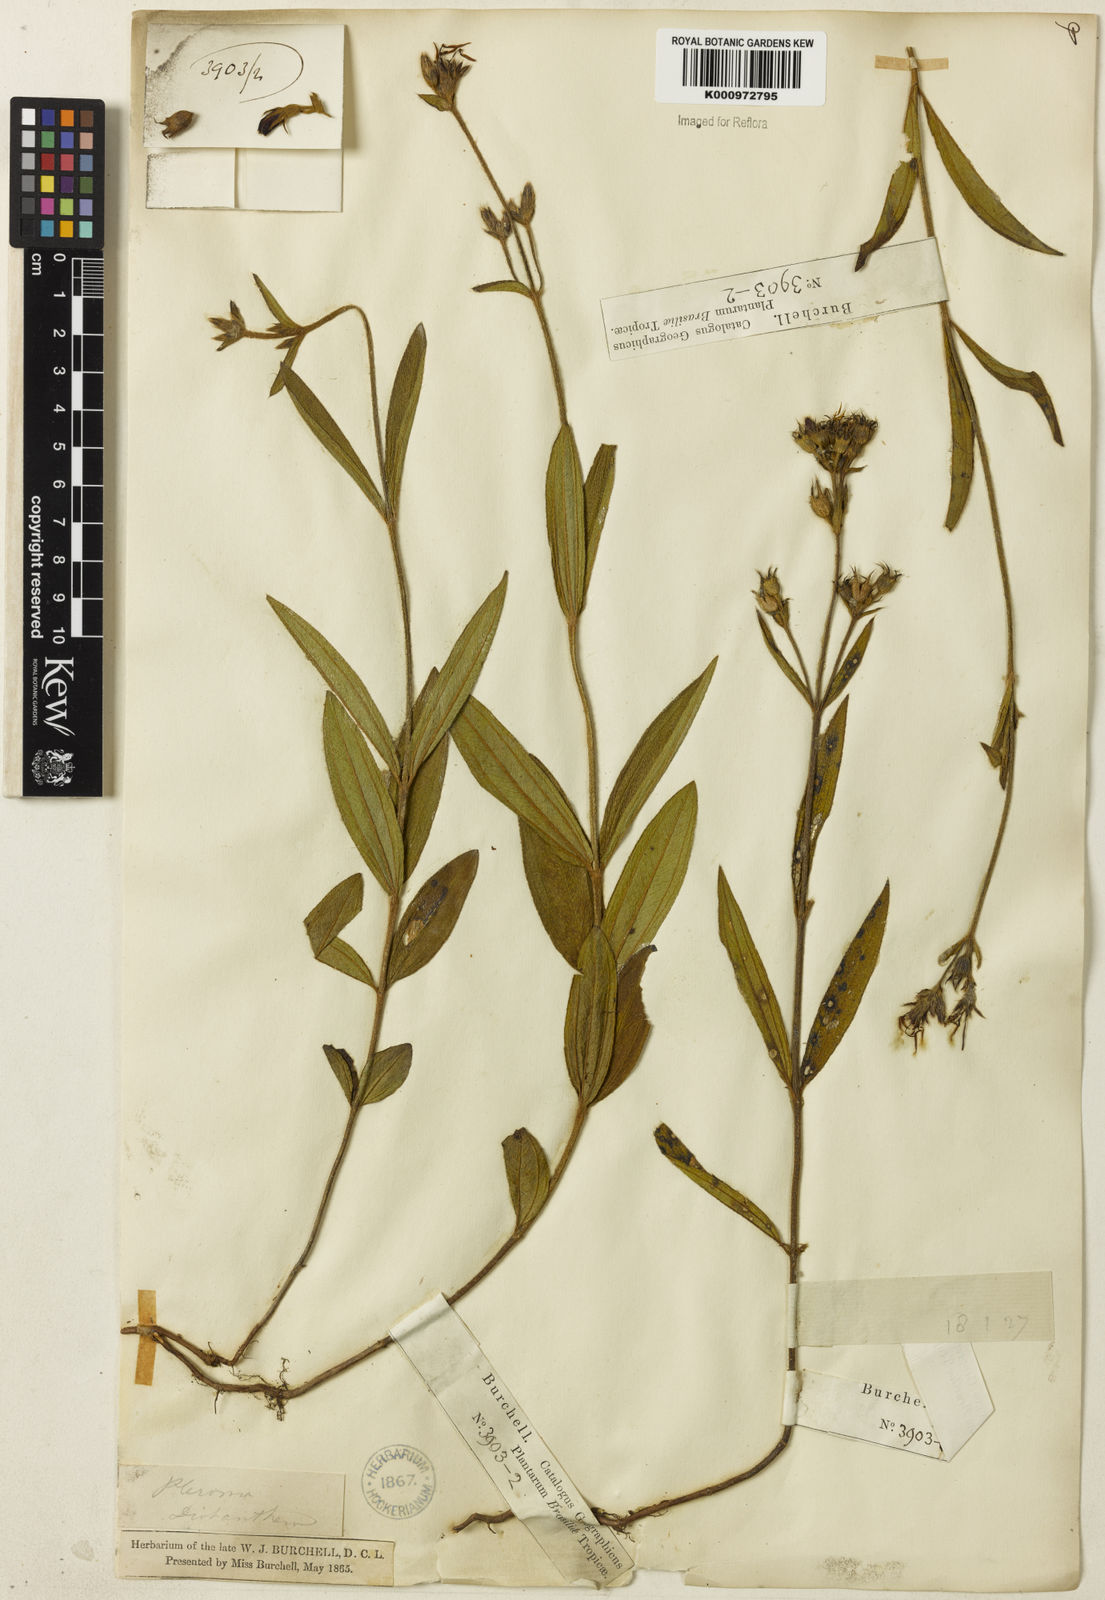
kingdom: Plantae
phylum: Tracheophyta
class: Magnoliopsida
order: Myrtales
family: Melastomataceae
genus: Chaetogastra
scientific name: Chaetogastra gracilis
